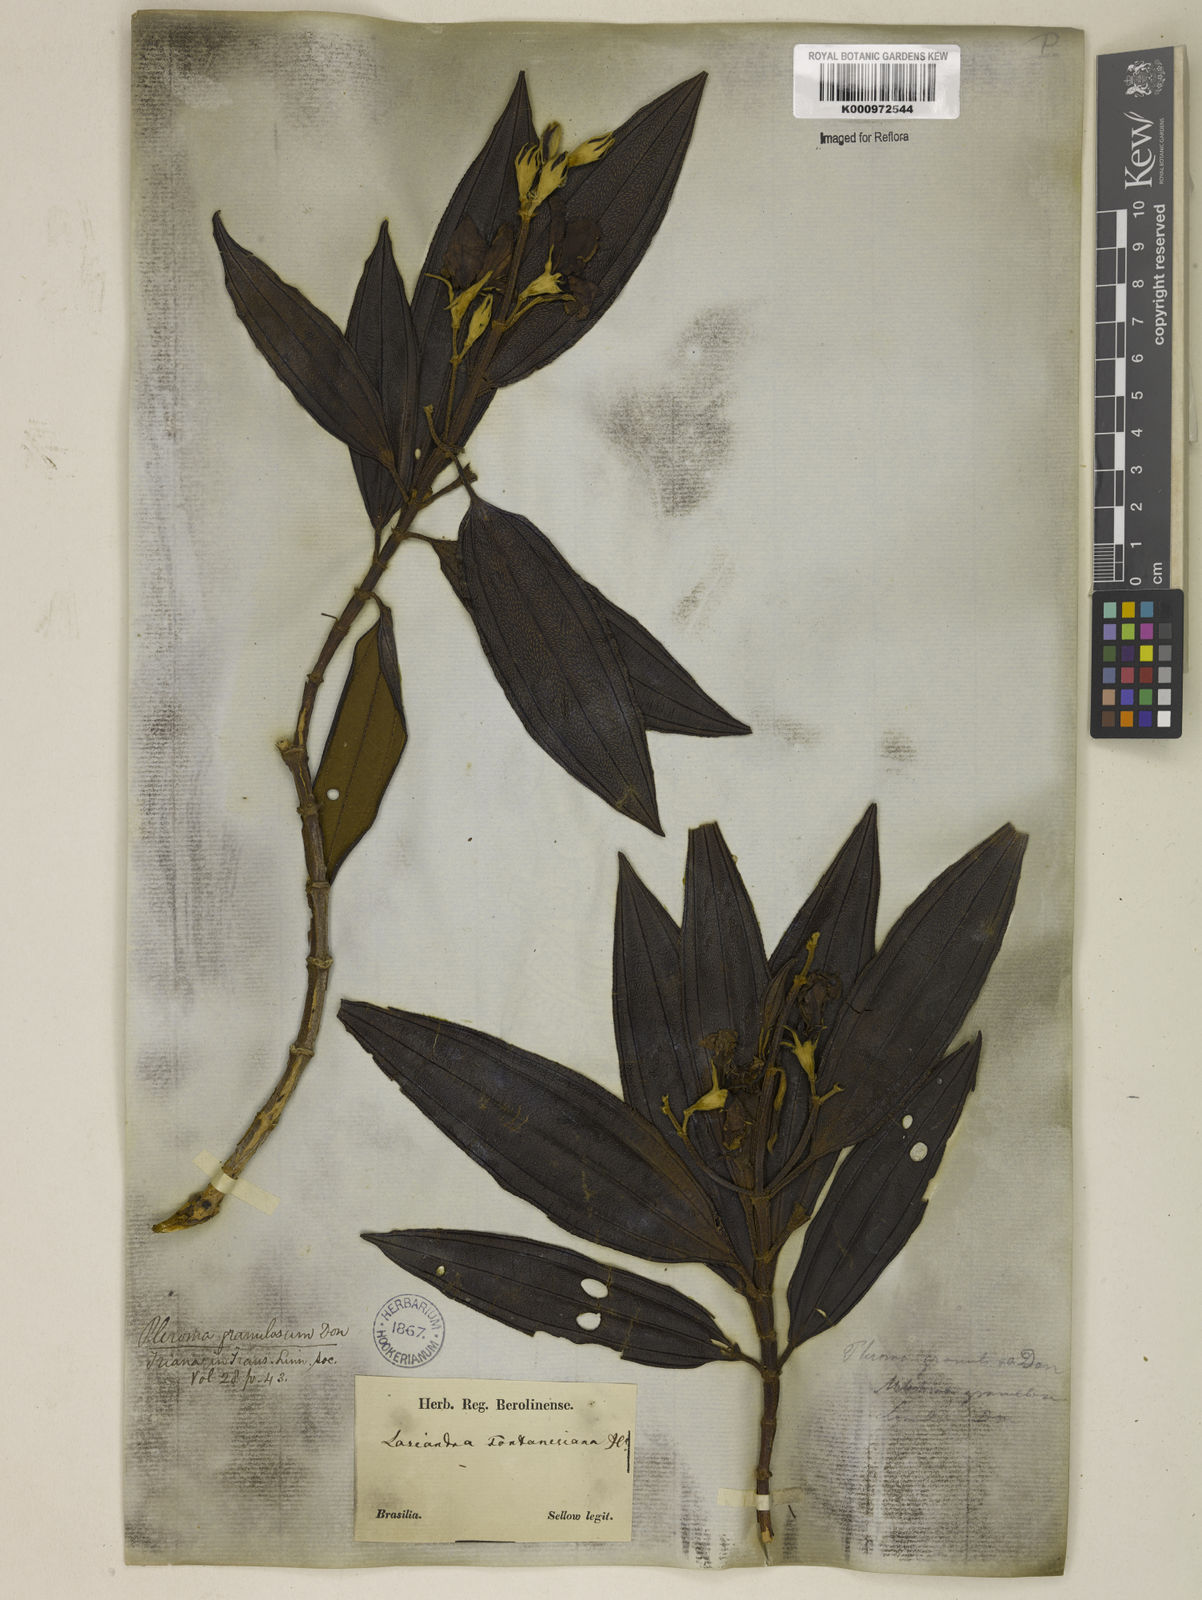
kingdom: Plantae
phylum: Tracheophyta
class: Magnoliopsida
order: Myrtales
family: Melastomataceae
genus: Pleroma
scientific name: Pleroma granulosum
